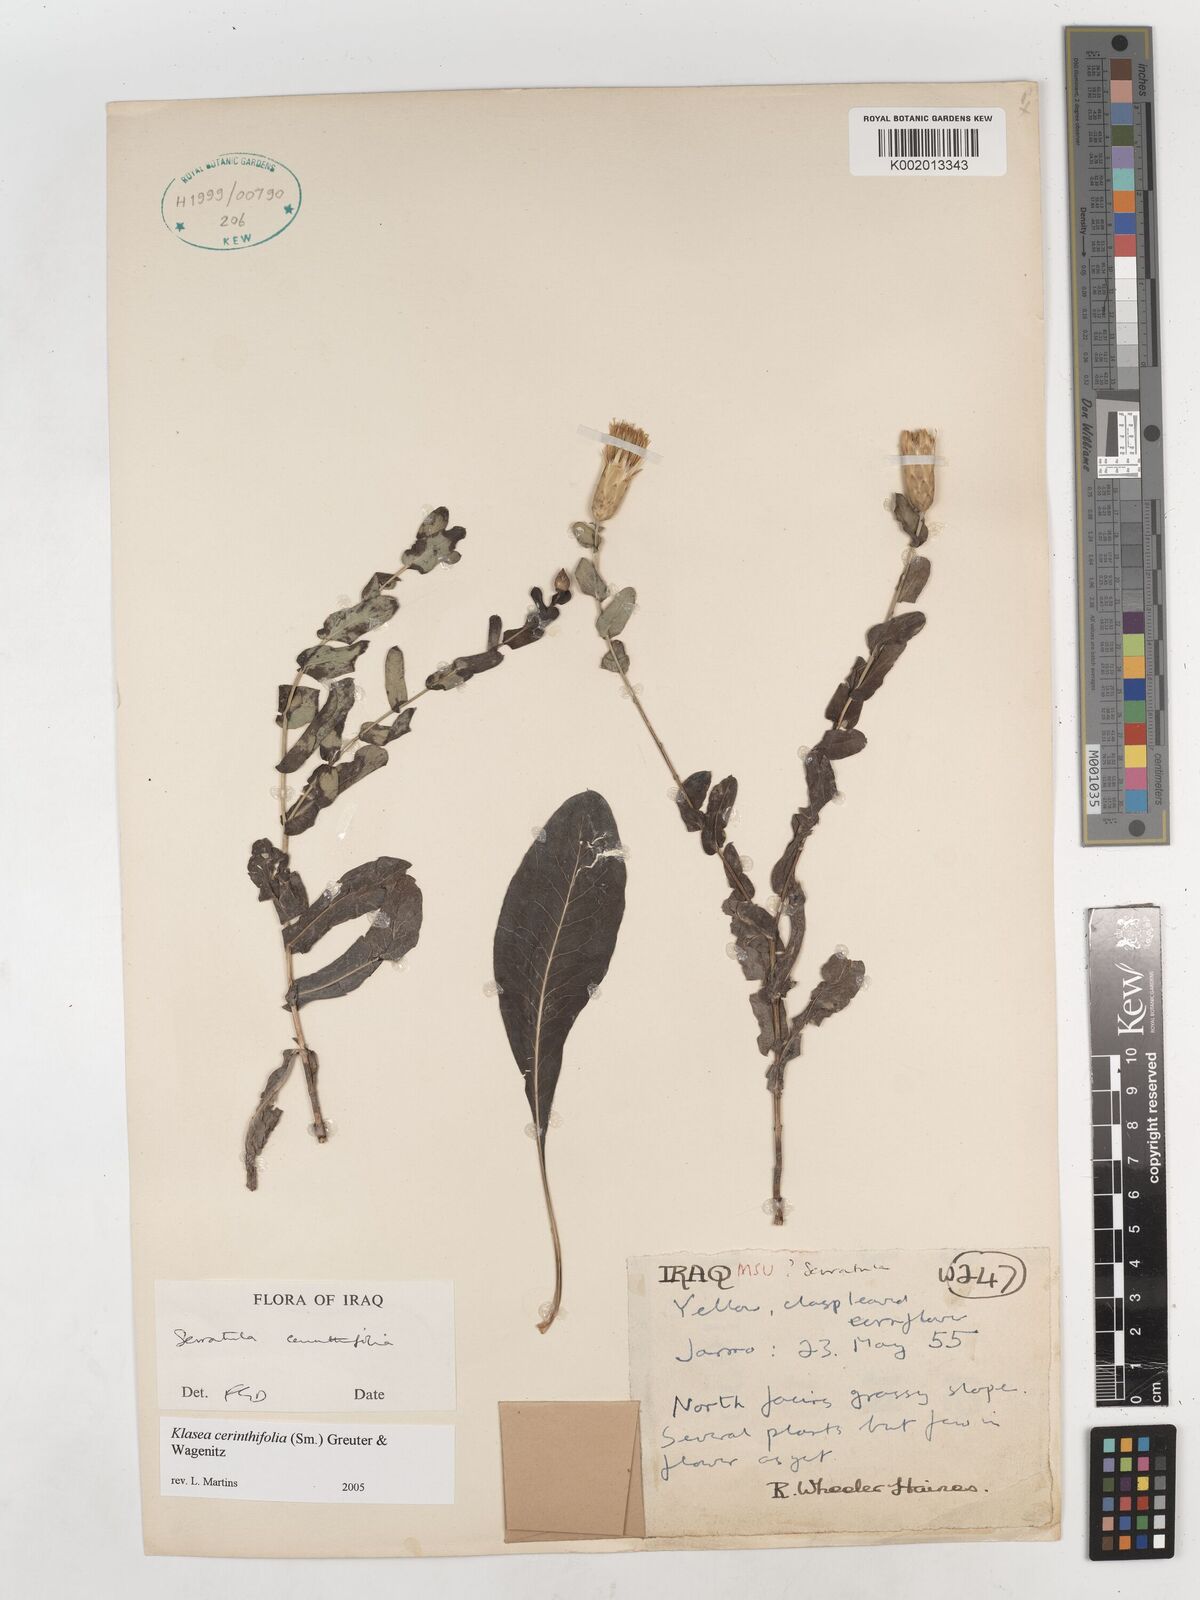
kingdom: Plantae
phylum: Tracheophyta
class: Magnoliopsida
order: Asterales
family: Asteraceae
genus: Klasea
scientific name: Klasea cerinthifolia
